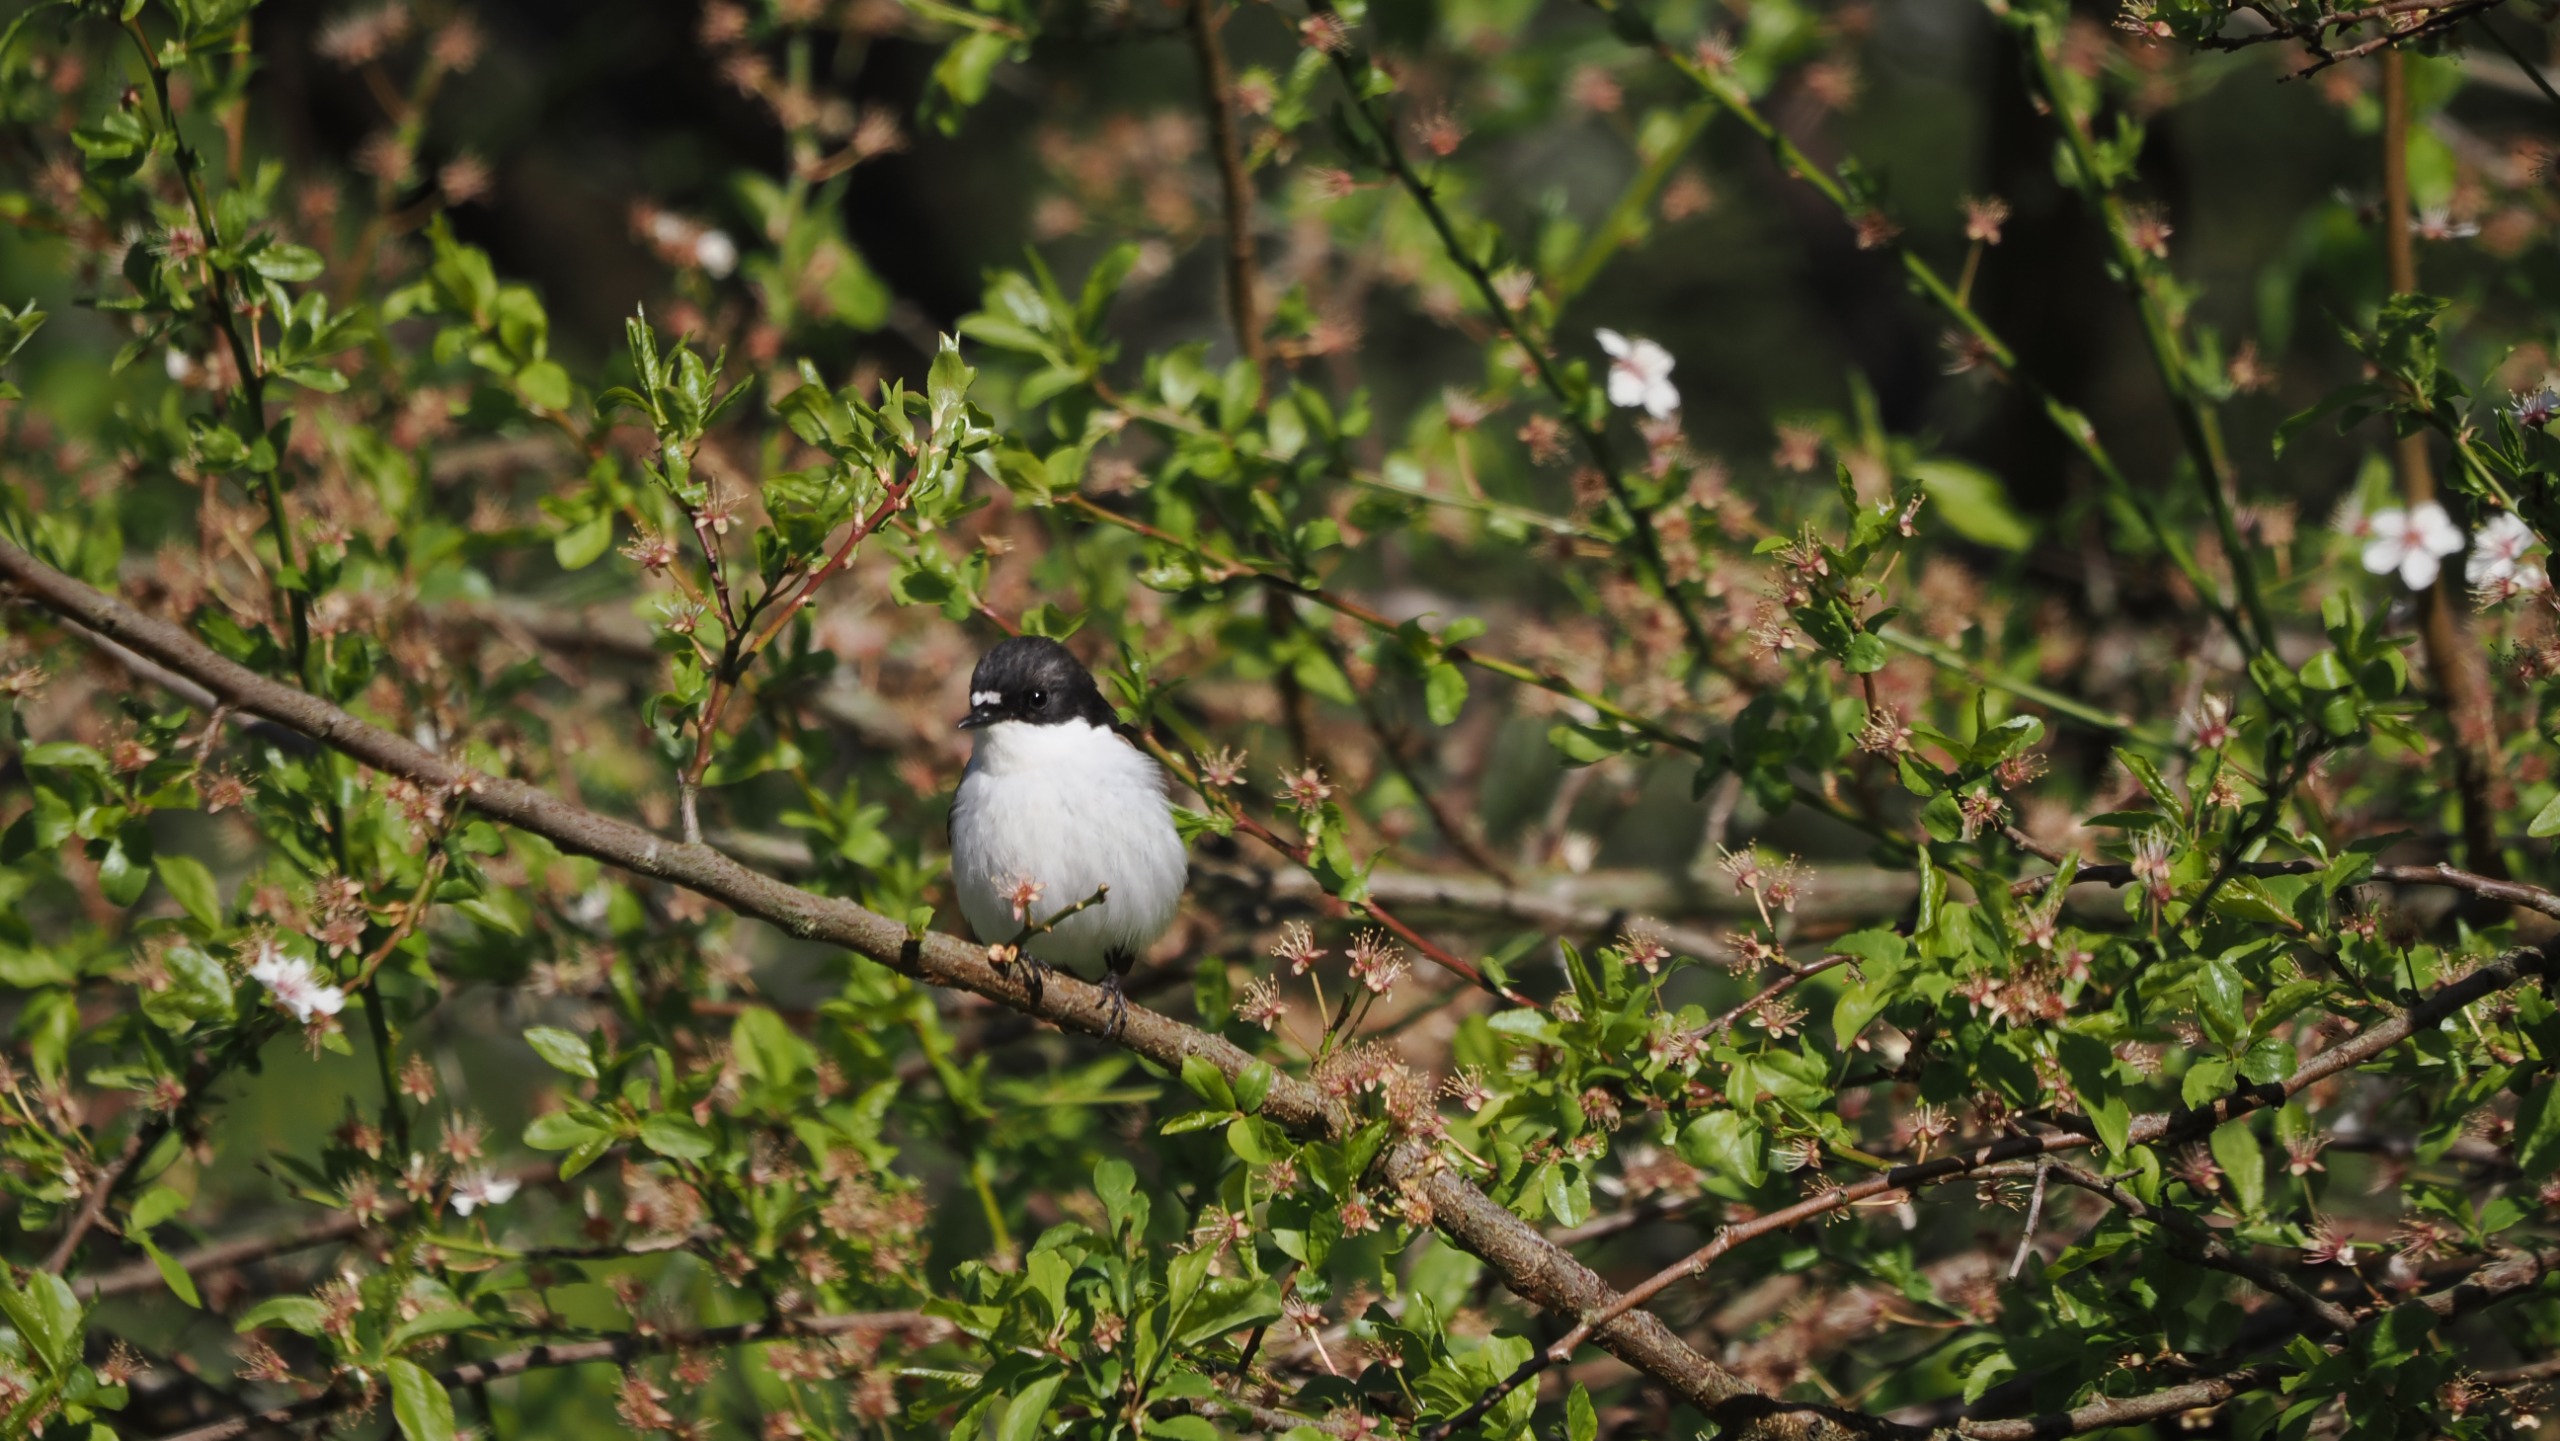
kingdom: Animalia
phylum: Chordata
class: Aves
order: Passeriformes
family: Muscicapidae
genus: Ficedula
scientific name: Ficedula hypoleuca
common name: Broget fluesnapper
